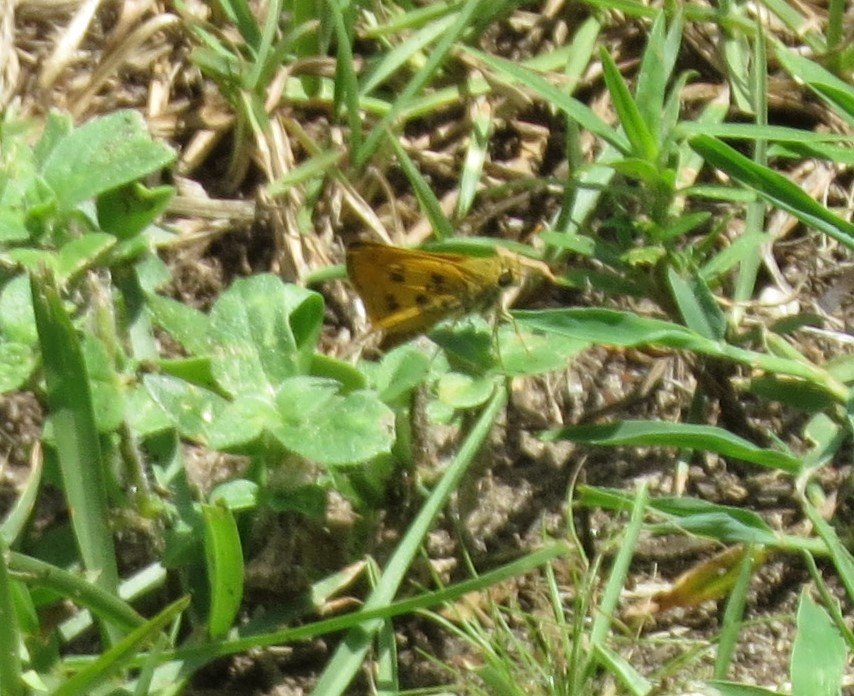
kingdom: Animalia
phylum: Arthropoda
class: Insecta
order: Lepidoptera
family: Hesperiidae
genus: Polites
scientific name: Polites vibex
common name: Whirlabout
